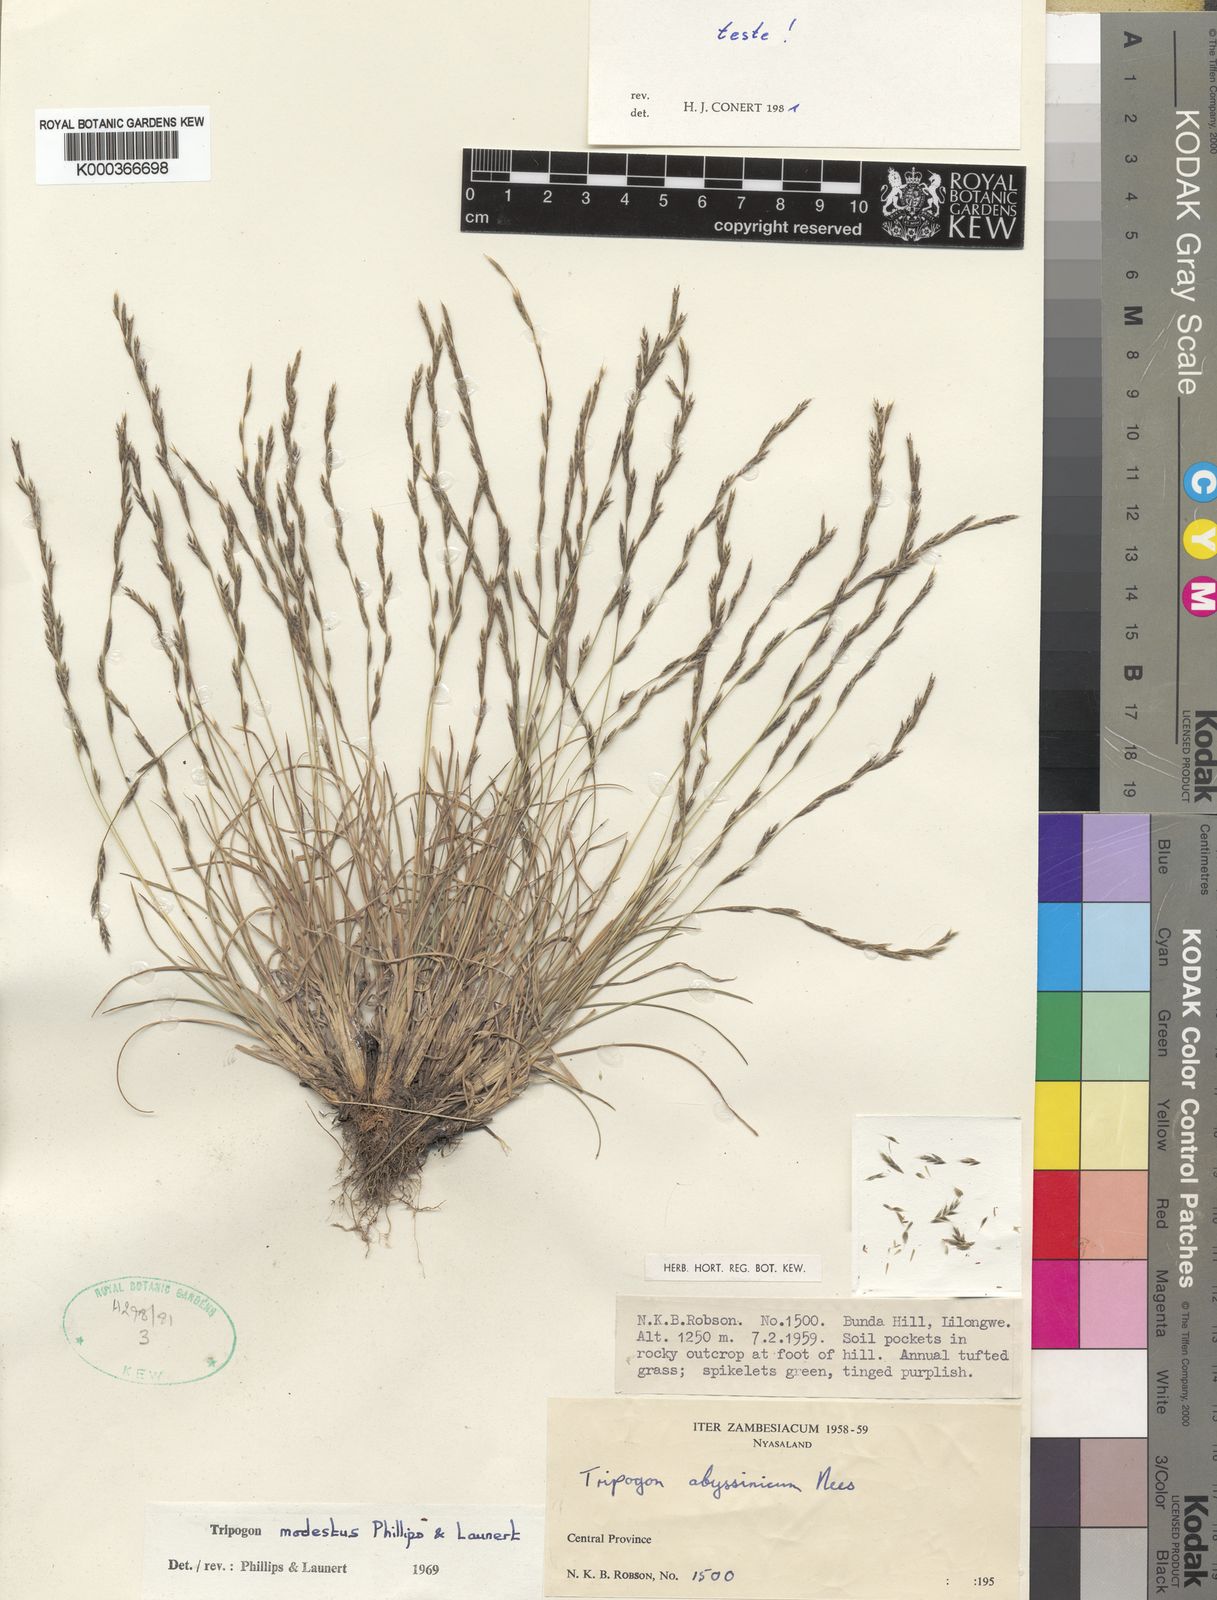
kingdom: Plantae
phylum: Tracheophyta
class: Liliopsida
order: Poales
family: Poaceae
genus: Tripogon
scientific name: Tripogon modestus
